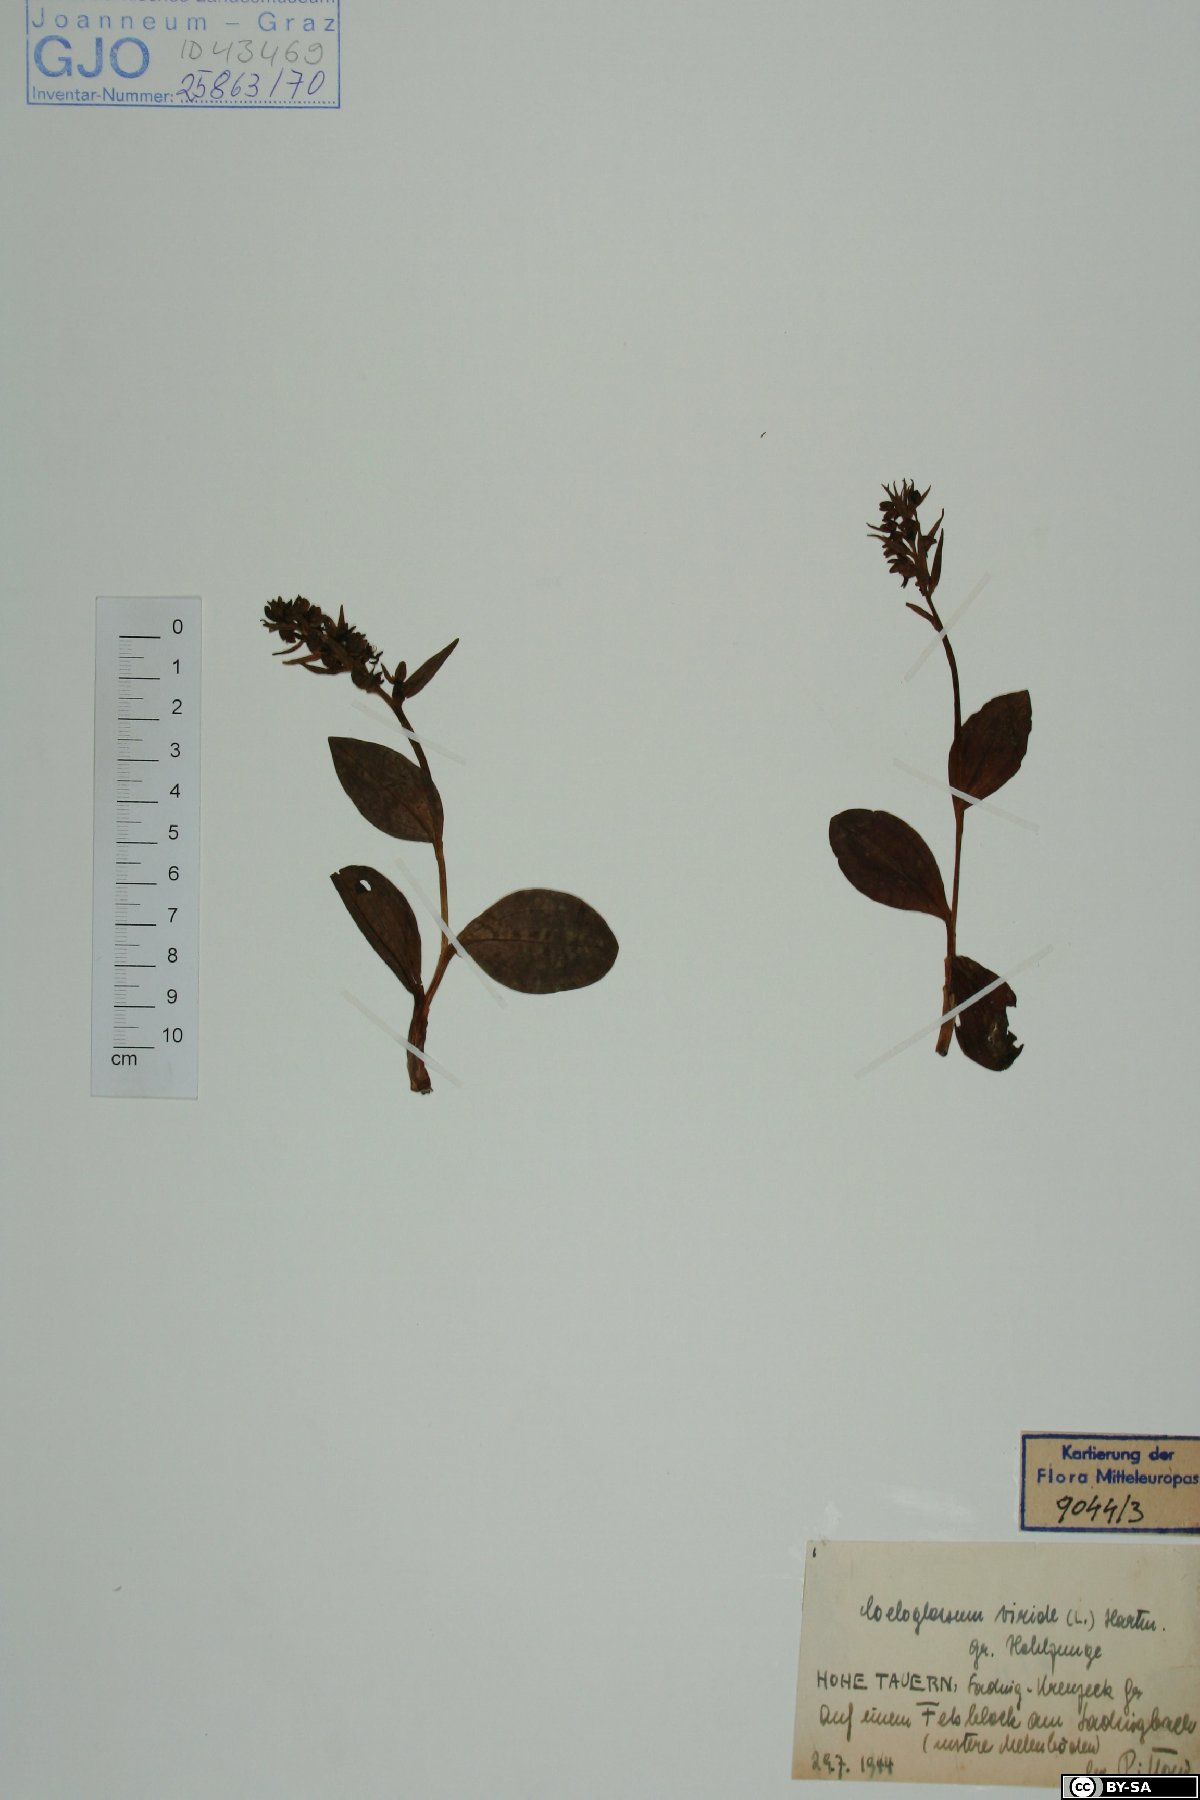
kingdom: Plantae
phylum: Tracheophyta
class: Liliopsida
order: Asparagales
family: Orchidaceae
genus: Dactylorhiza
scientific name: Dactylorhiza viridis
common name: Longbract frog orchid
